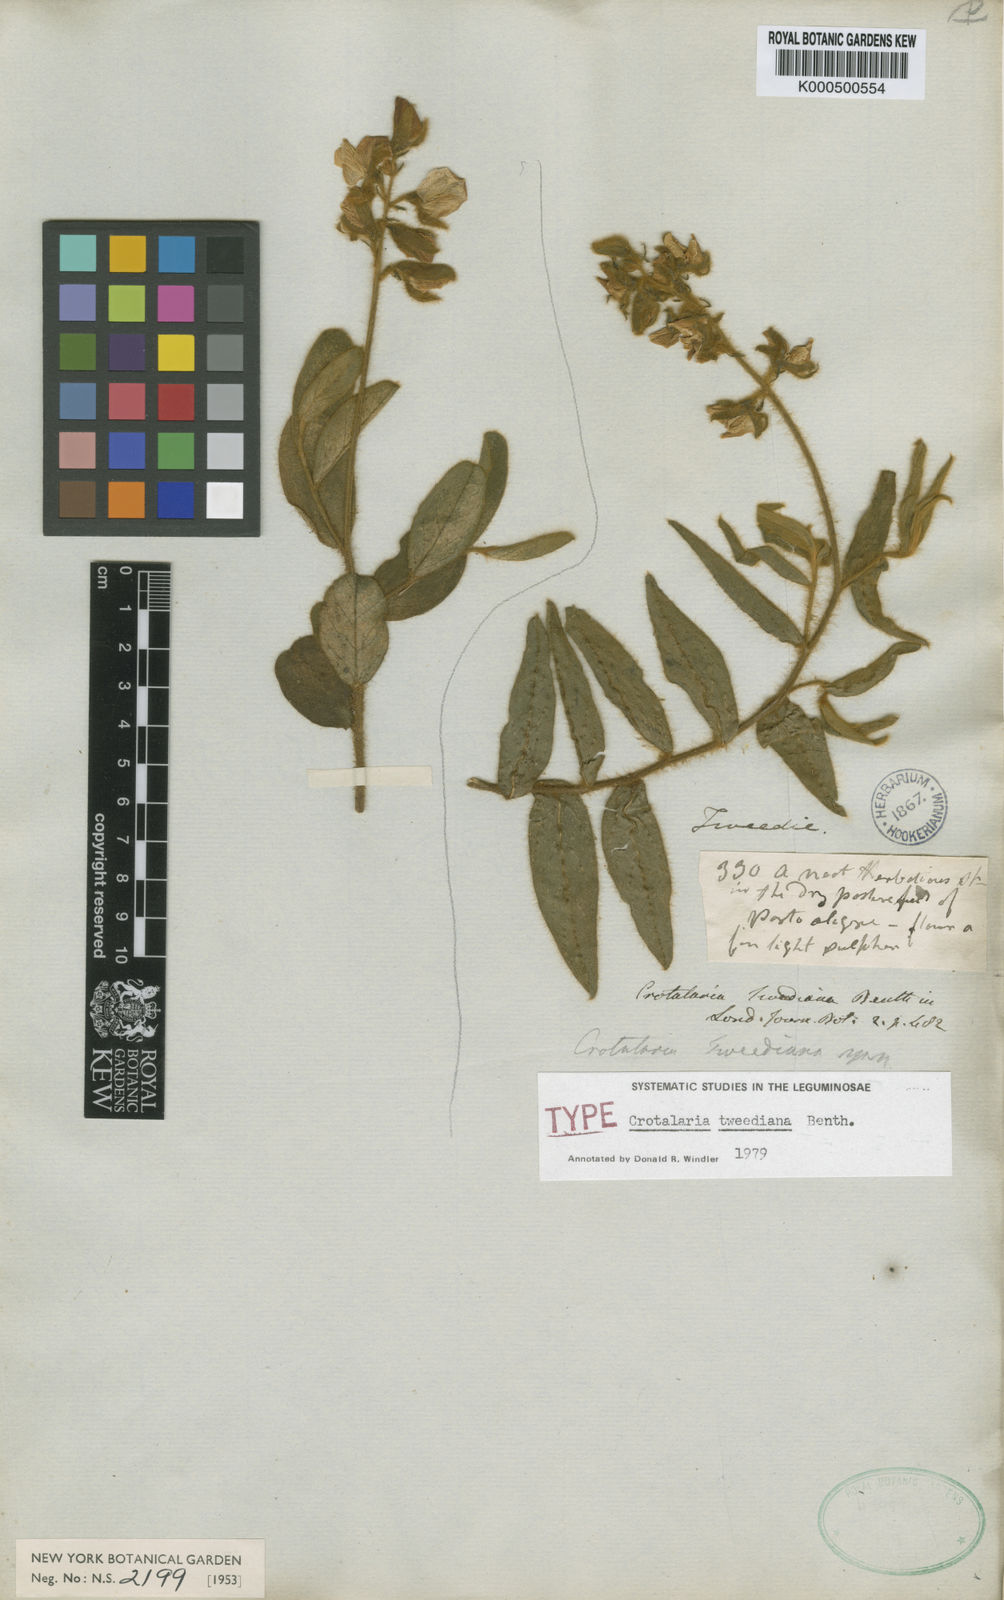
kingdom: Plantae
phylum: Tracheophyta
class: Magnoliopsida
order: Fabales
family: Fabaceae
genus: Crotalaria
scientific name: Crotalaria
